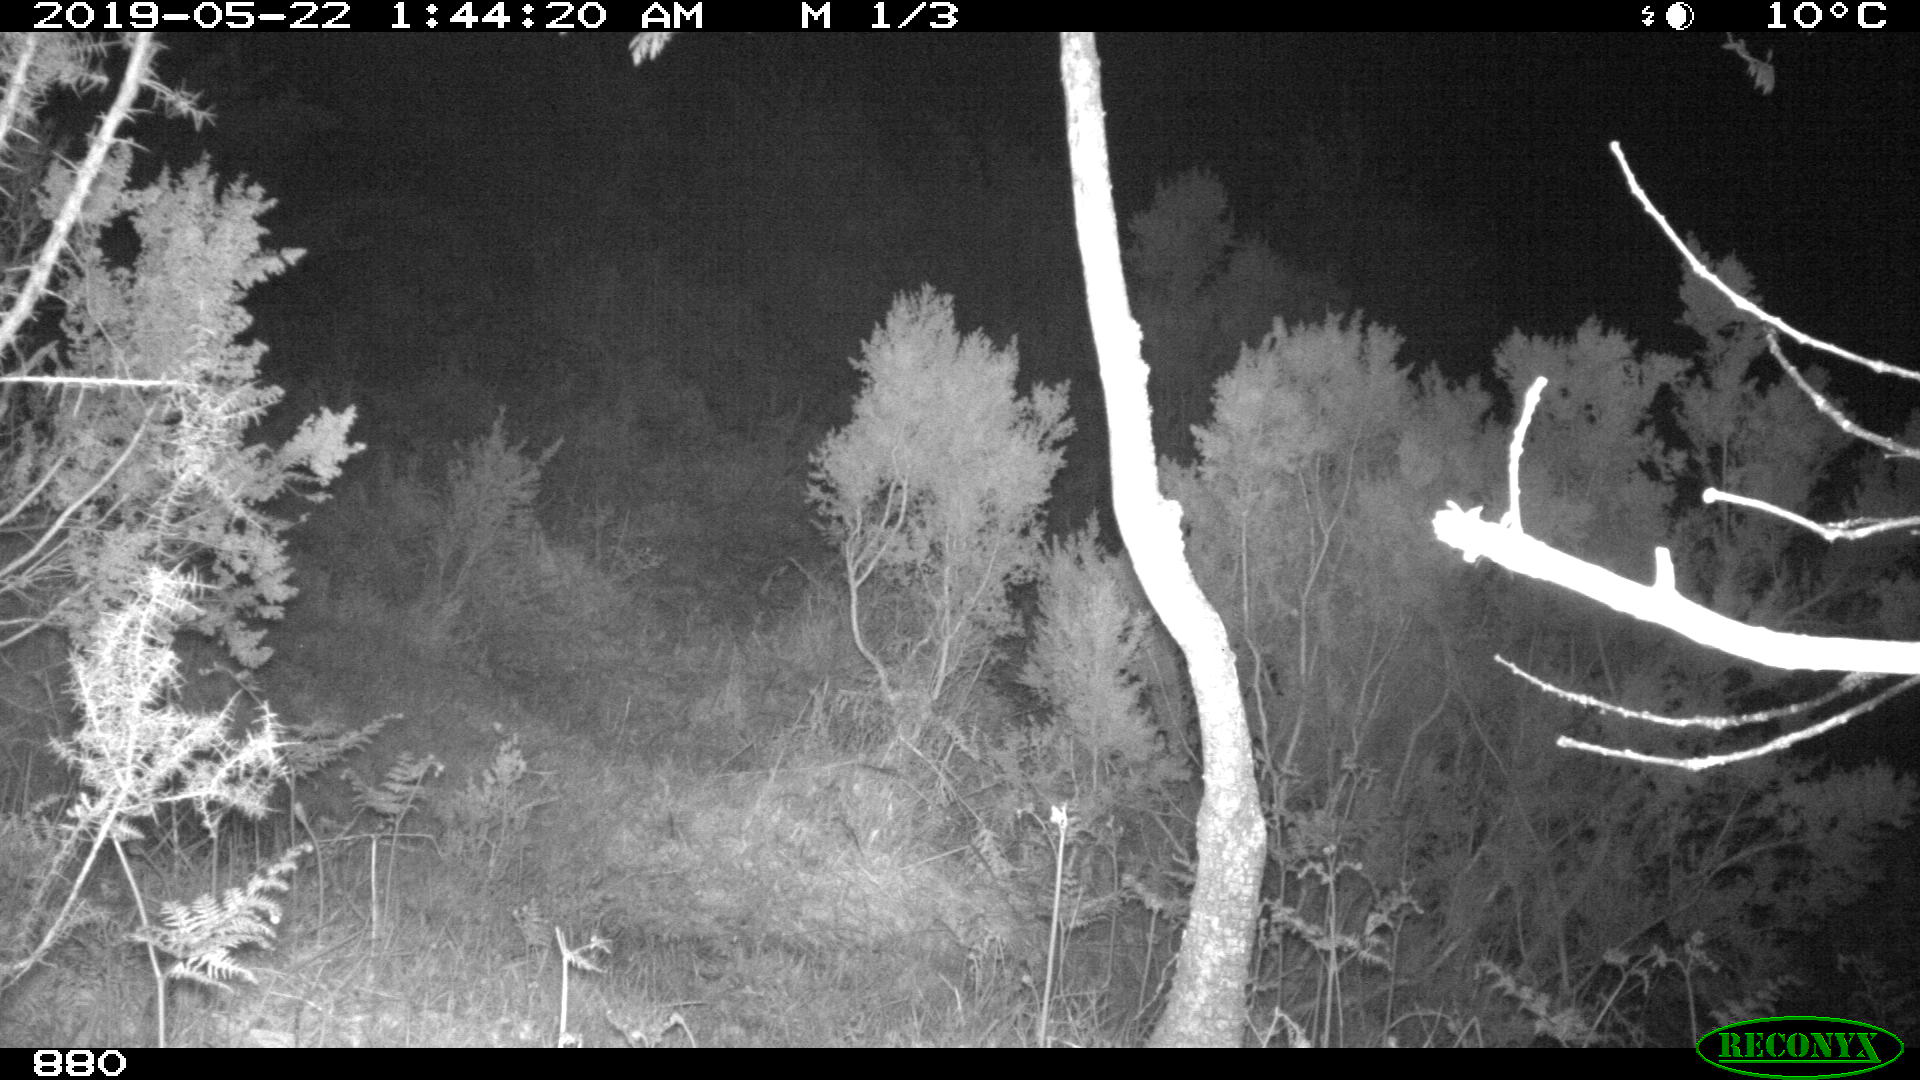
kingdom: Animalia
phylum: Chordata
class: Mammalia
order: Artiodactyla
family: Cervidae
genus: Capreolus
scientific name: Capreolus capreolus
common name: Western roe deer
